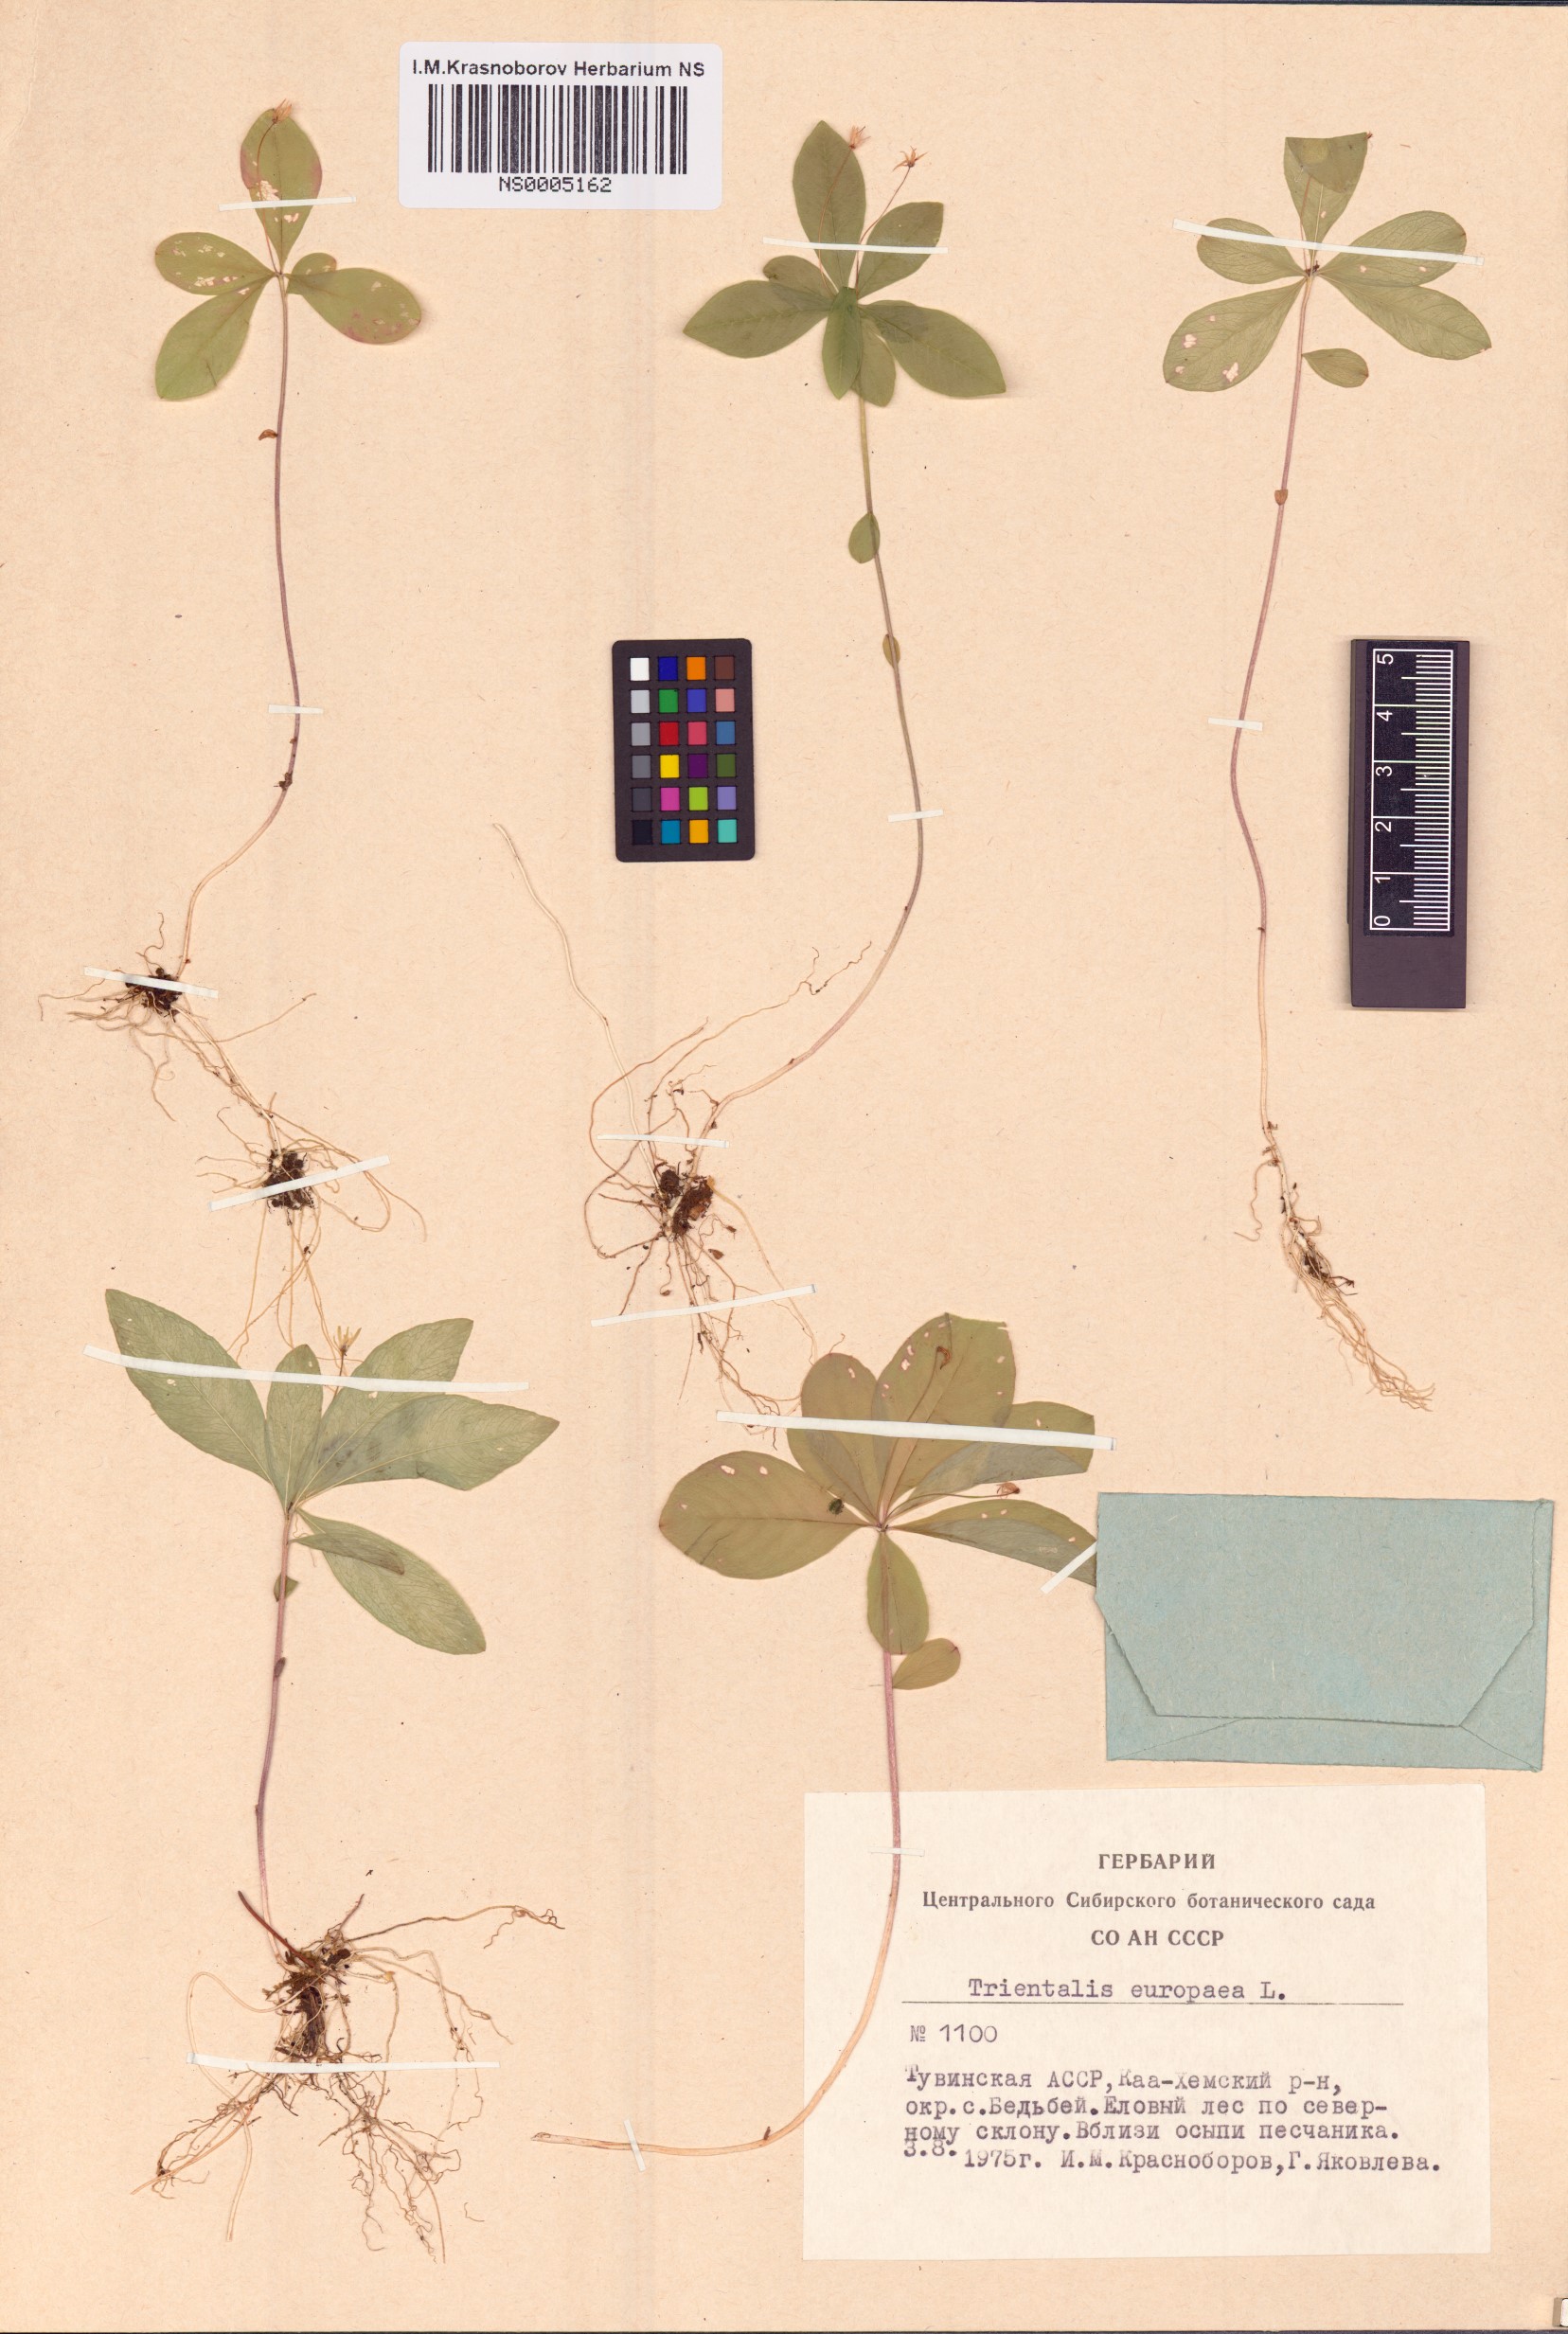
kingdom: Plantae
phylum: Tracheophyta
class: Magnoliopsida
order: Ericales
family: Primulaceae
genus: Lysimachia
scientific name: Lysimachia europaea
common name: Arctic starflower
